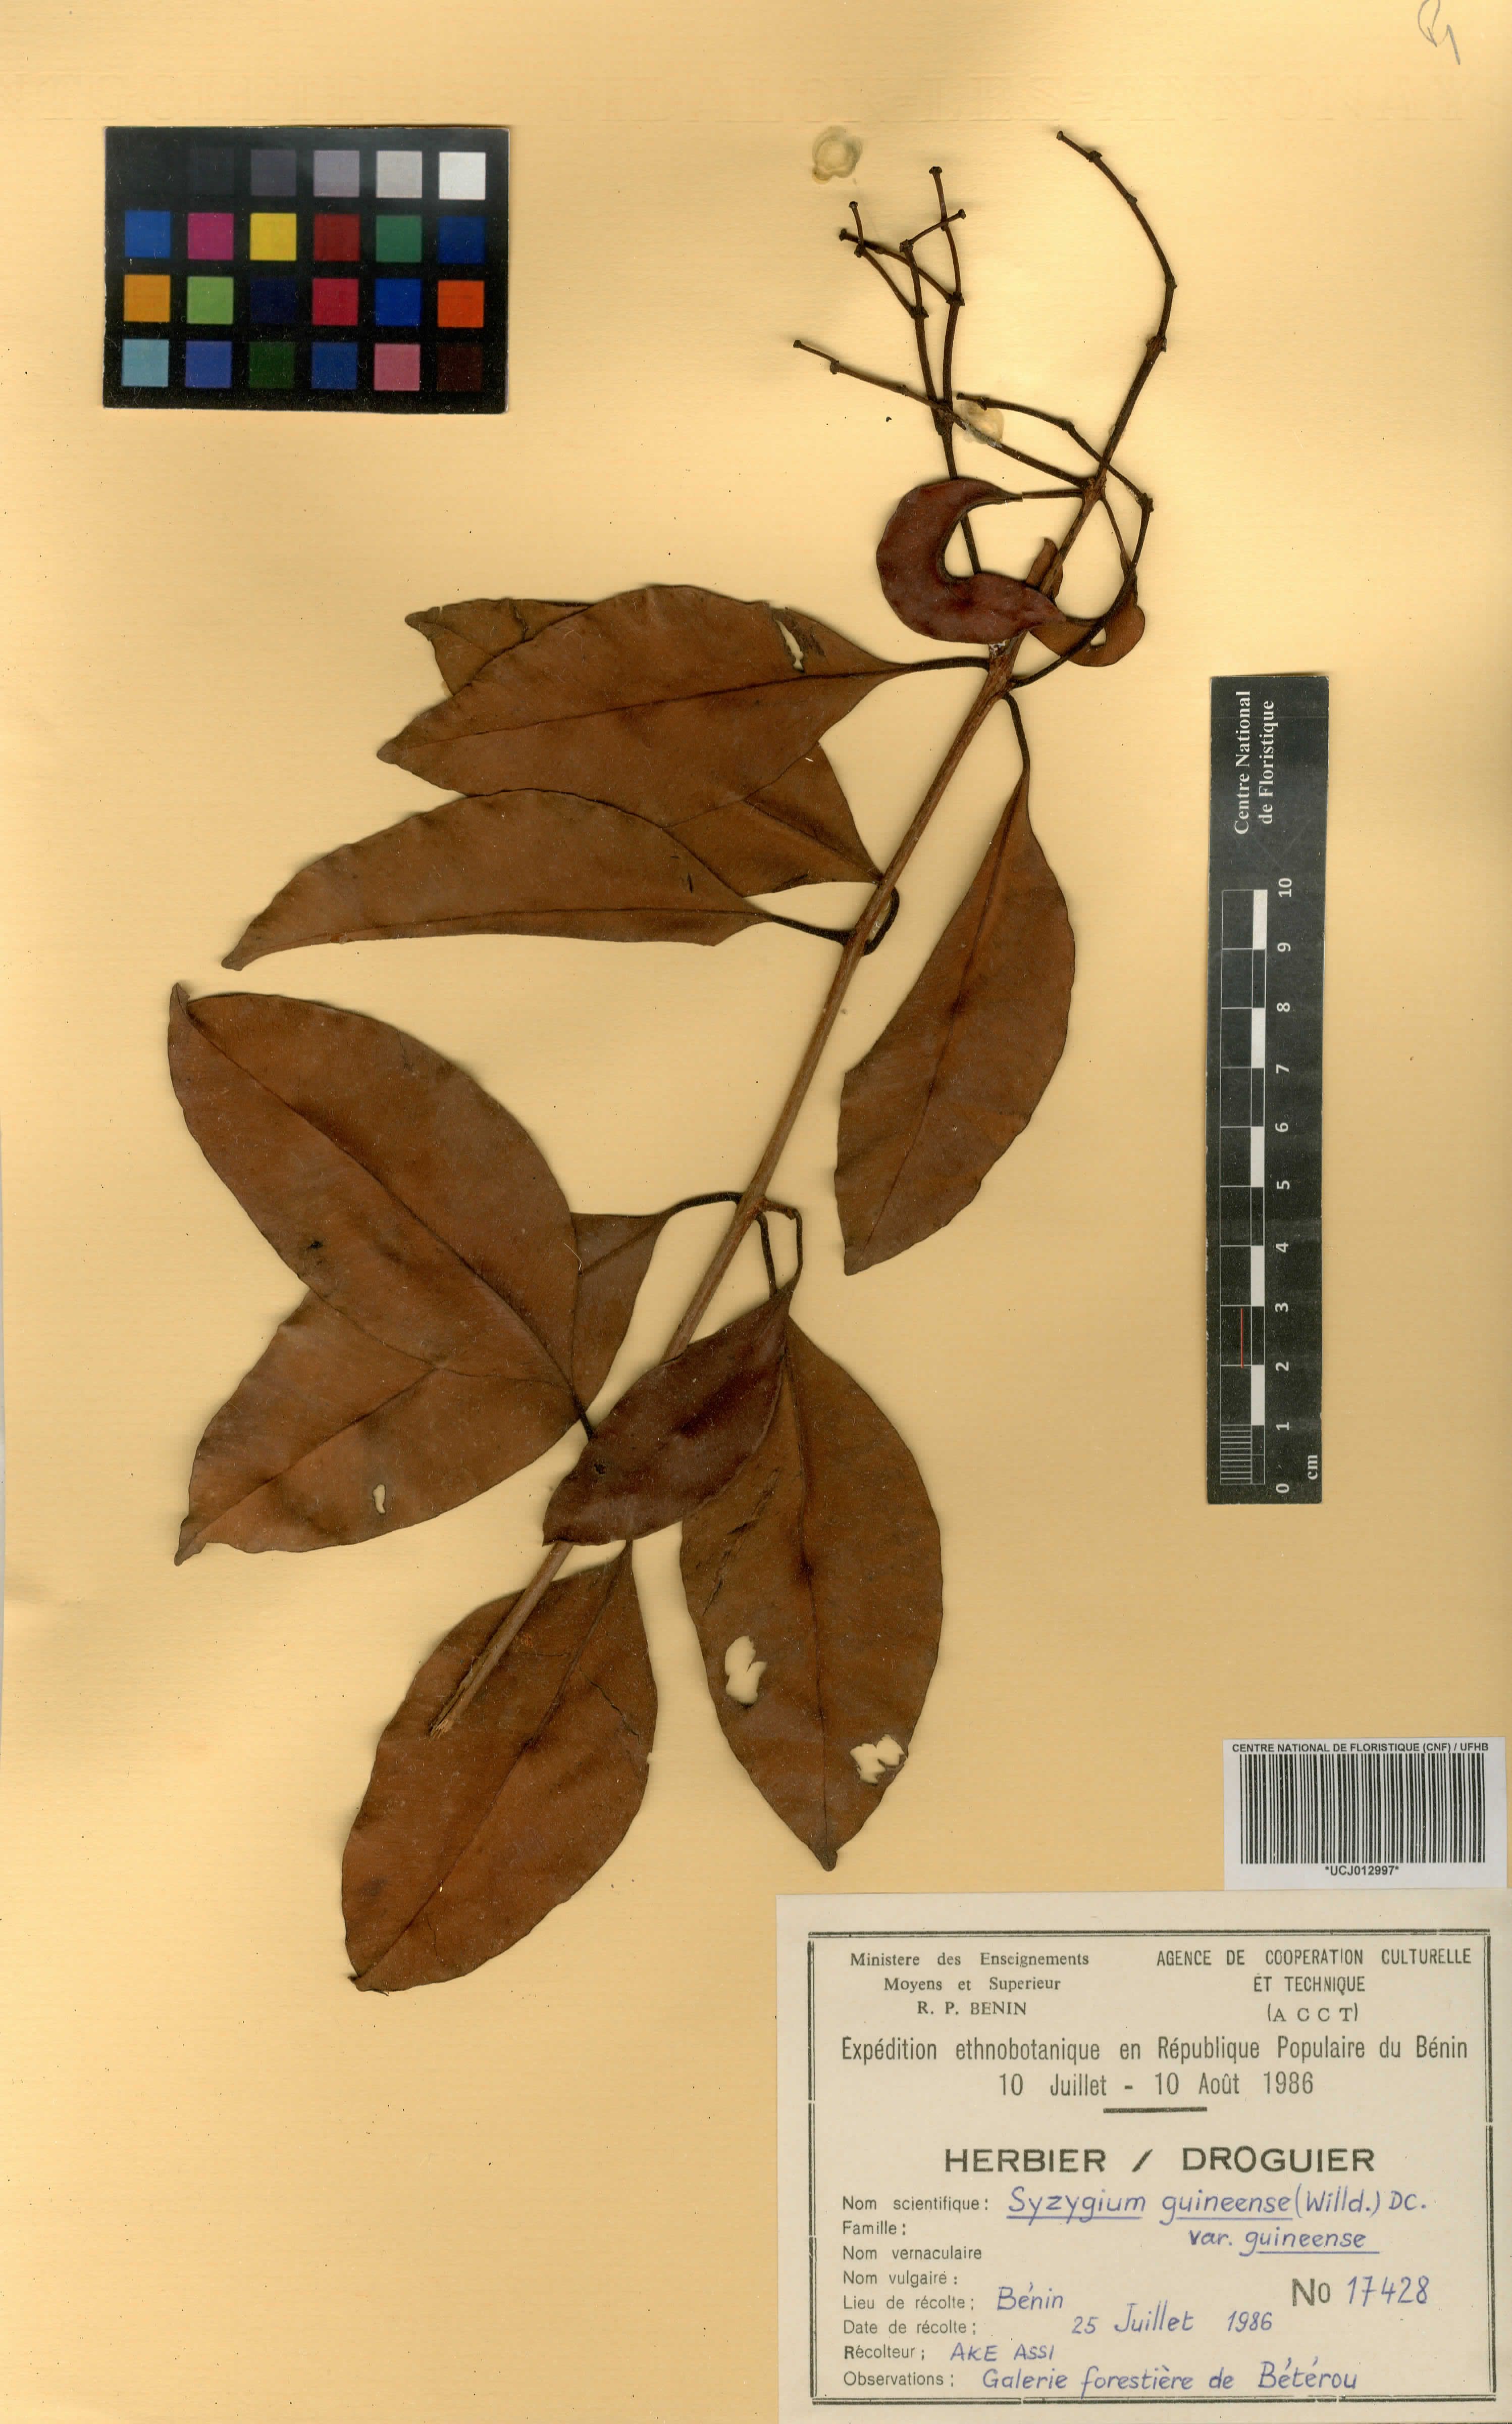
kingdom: Plantae
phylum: Tracheophyta
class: Magnoliopsida
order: Myrtales
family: Myrtaceae
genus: Syzygium
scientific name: Syzygium guineense
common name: Water-pear
